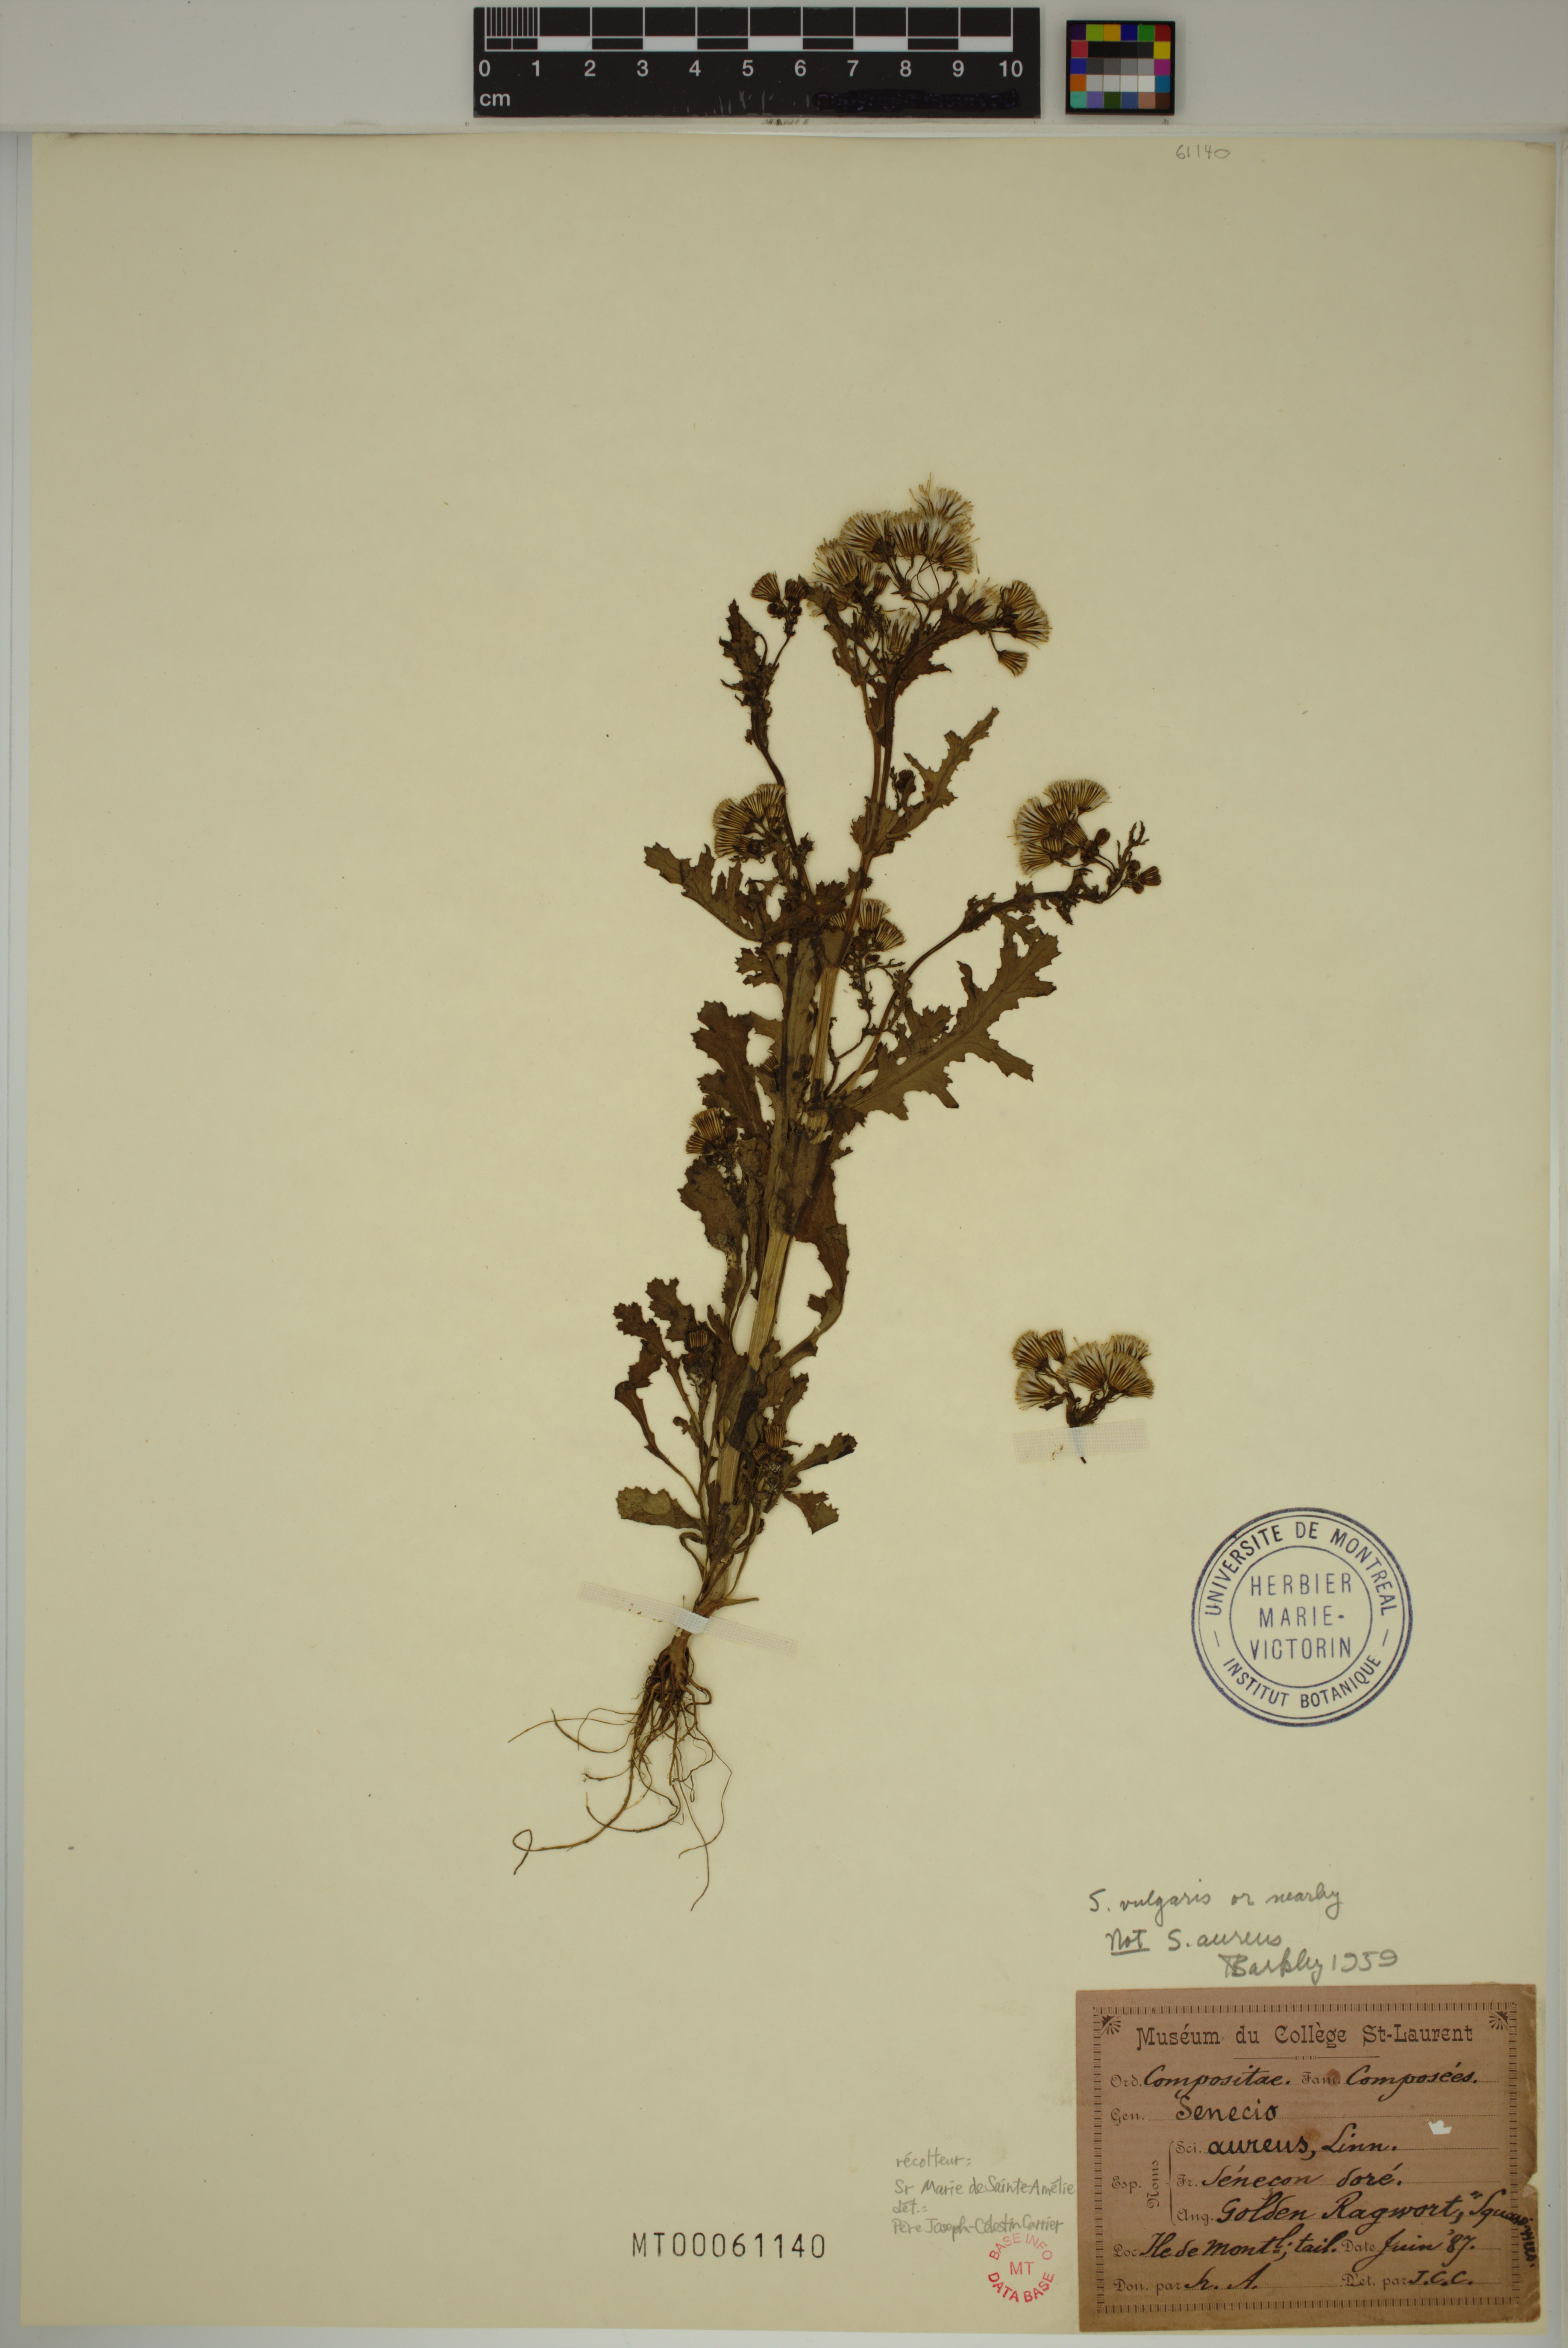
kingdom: Plantae
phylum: Tracheophyta
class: Magnoliopsida
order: Asterales
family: Asteraceae
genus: Senecio
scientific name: Senecio vulgaris
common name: Old-man-in-the-spring
